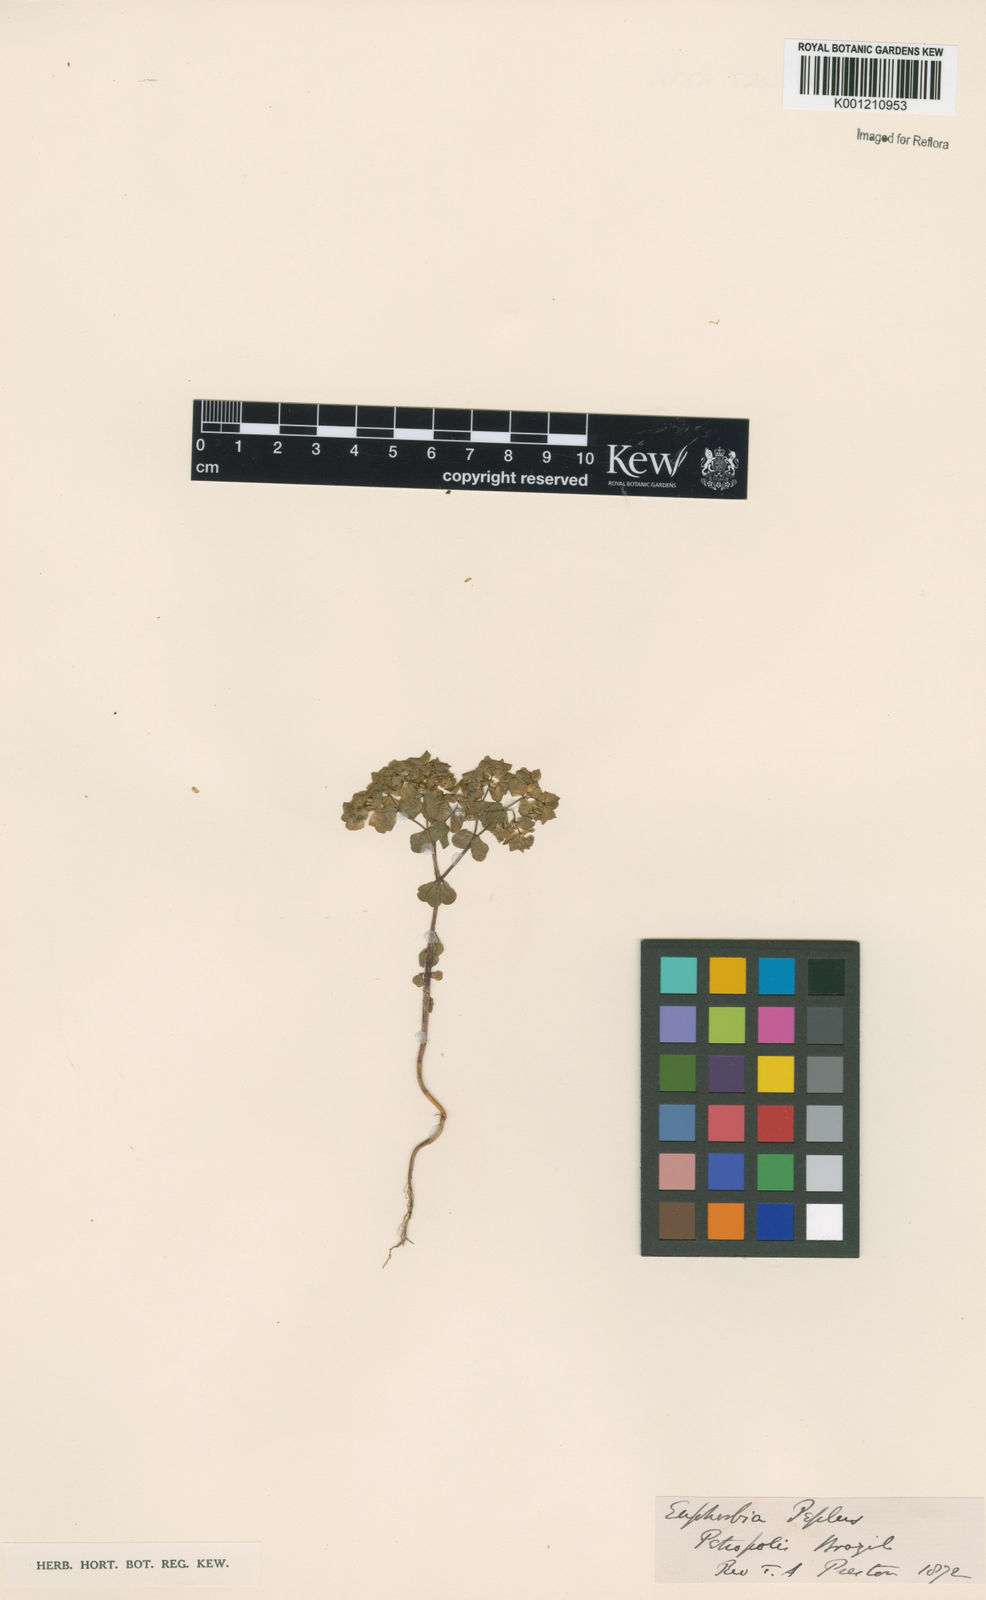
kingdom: Plantae
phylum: Tracheophyta
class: Magnoliopsida
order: Malpighiales
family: Euphorbiaceae
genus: Euphorbia
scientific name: Euphorbia peplus
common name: Petty spurge
